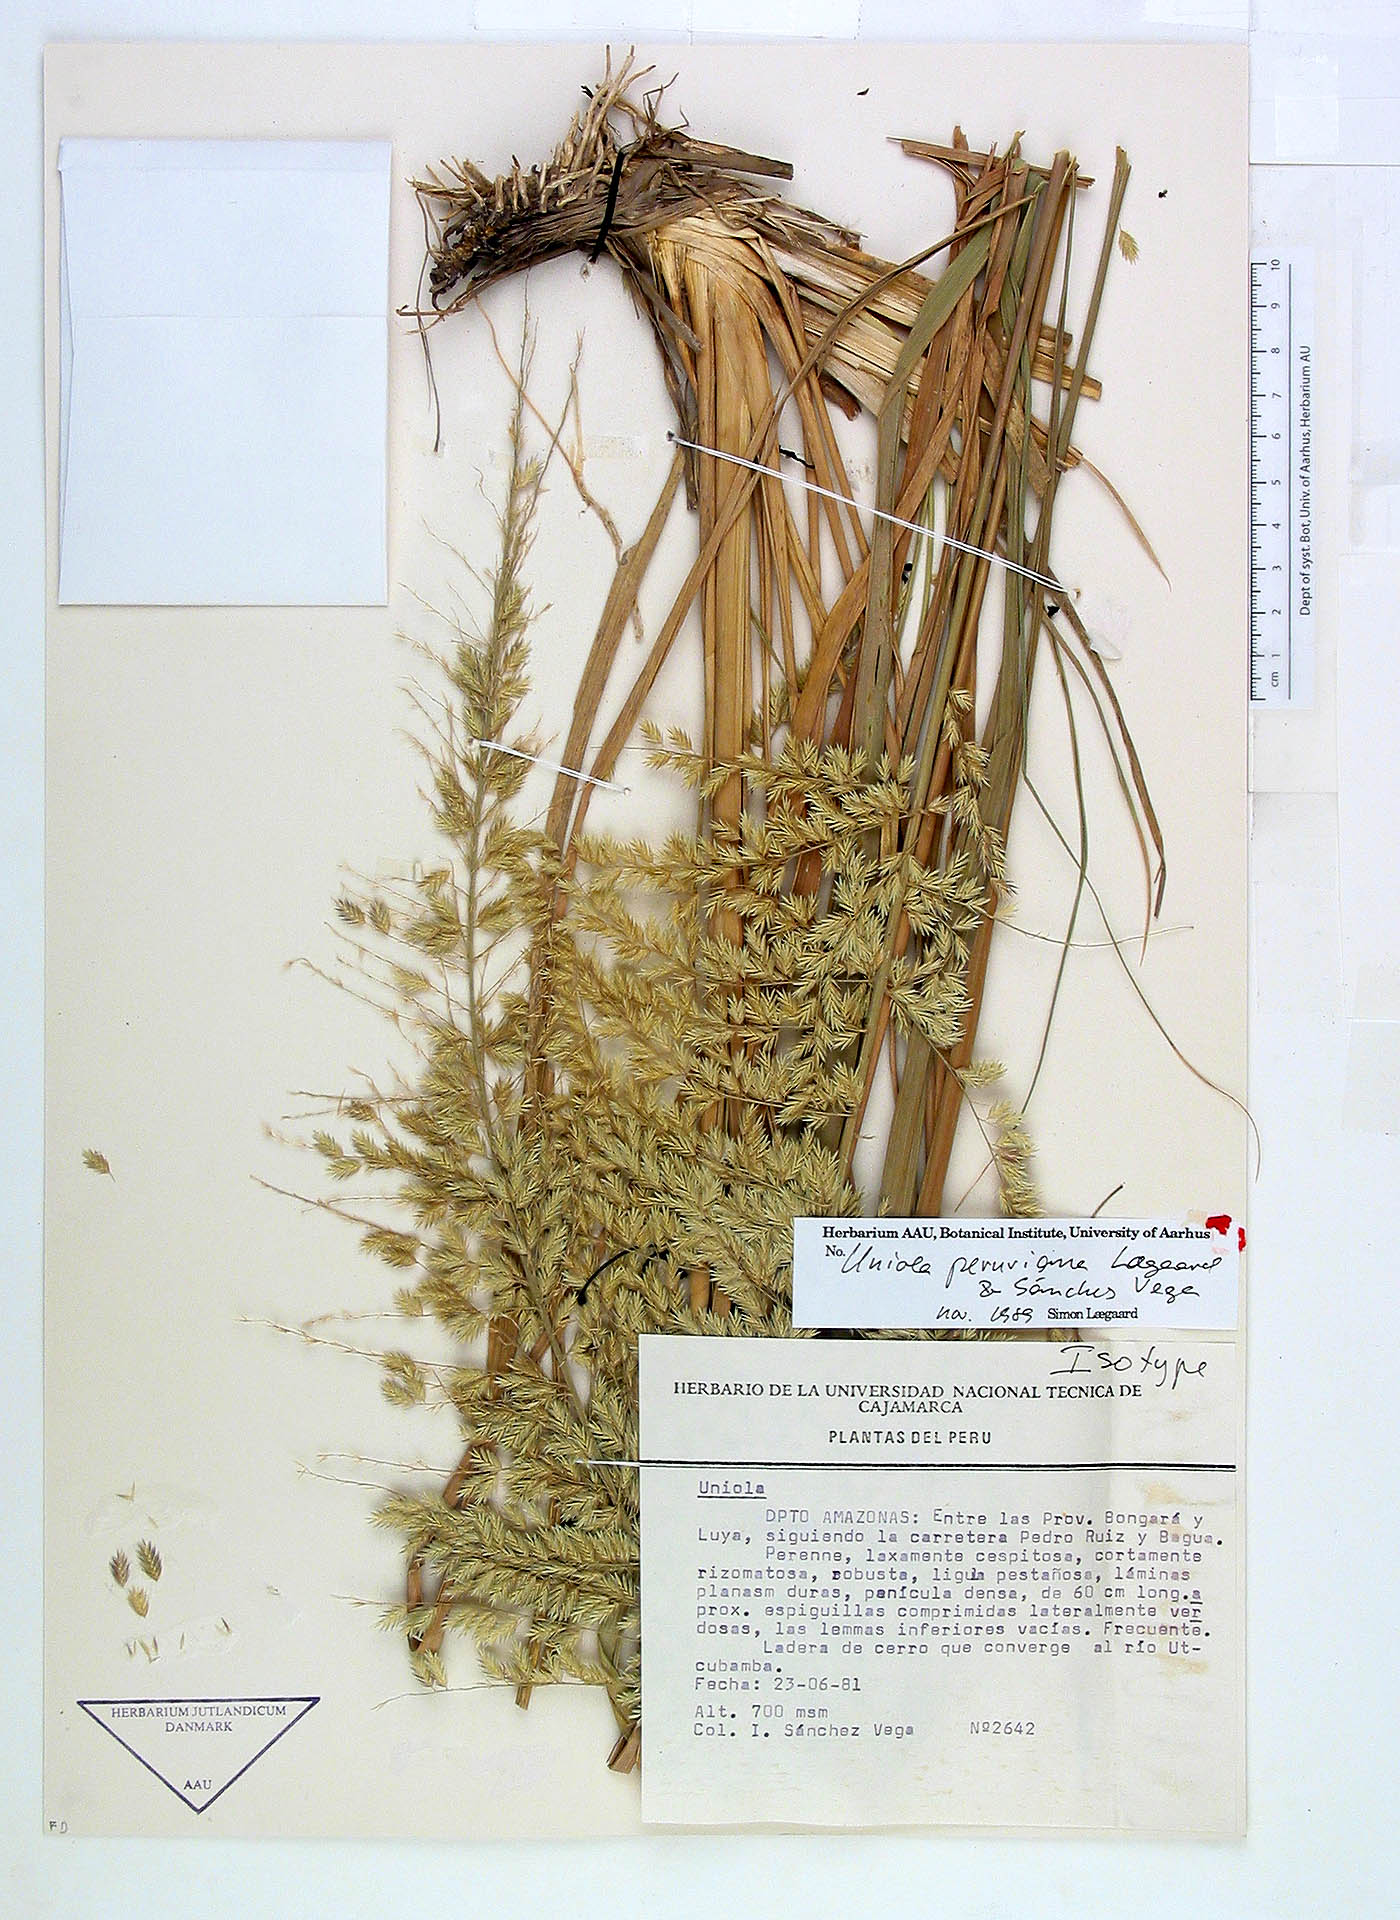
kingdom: Plantae
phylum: Tracheophyta
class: Liliopsida
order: Poales
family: Poaceae
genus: Uniola
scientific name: Uniola peruviana
